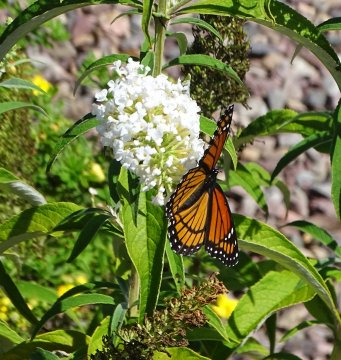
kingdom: Animalia
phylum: Arthropoda
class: Insecta
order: Lepidoptera
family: Nymphalidae
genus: Limenitis
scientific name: Limenitis archippus
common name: Viceroy
